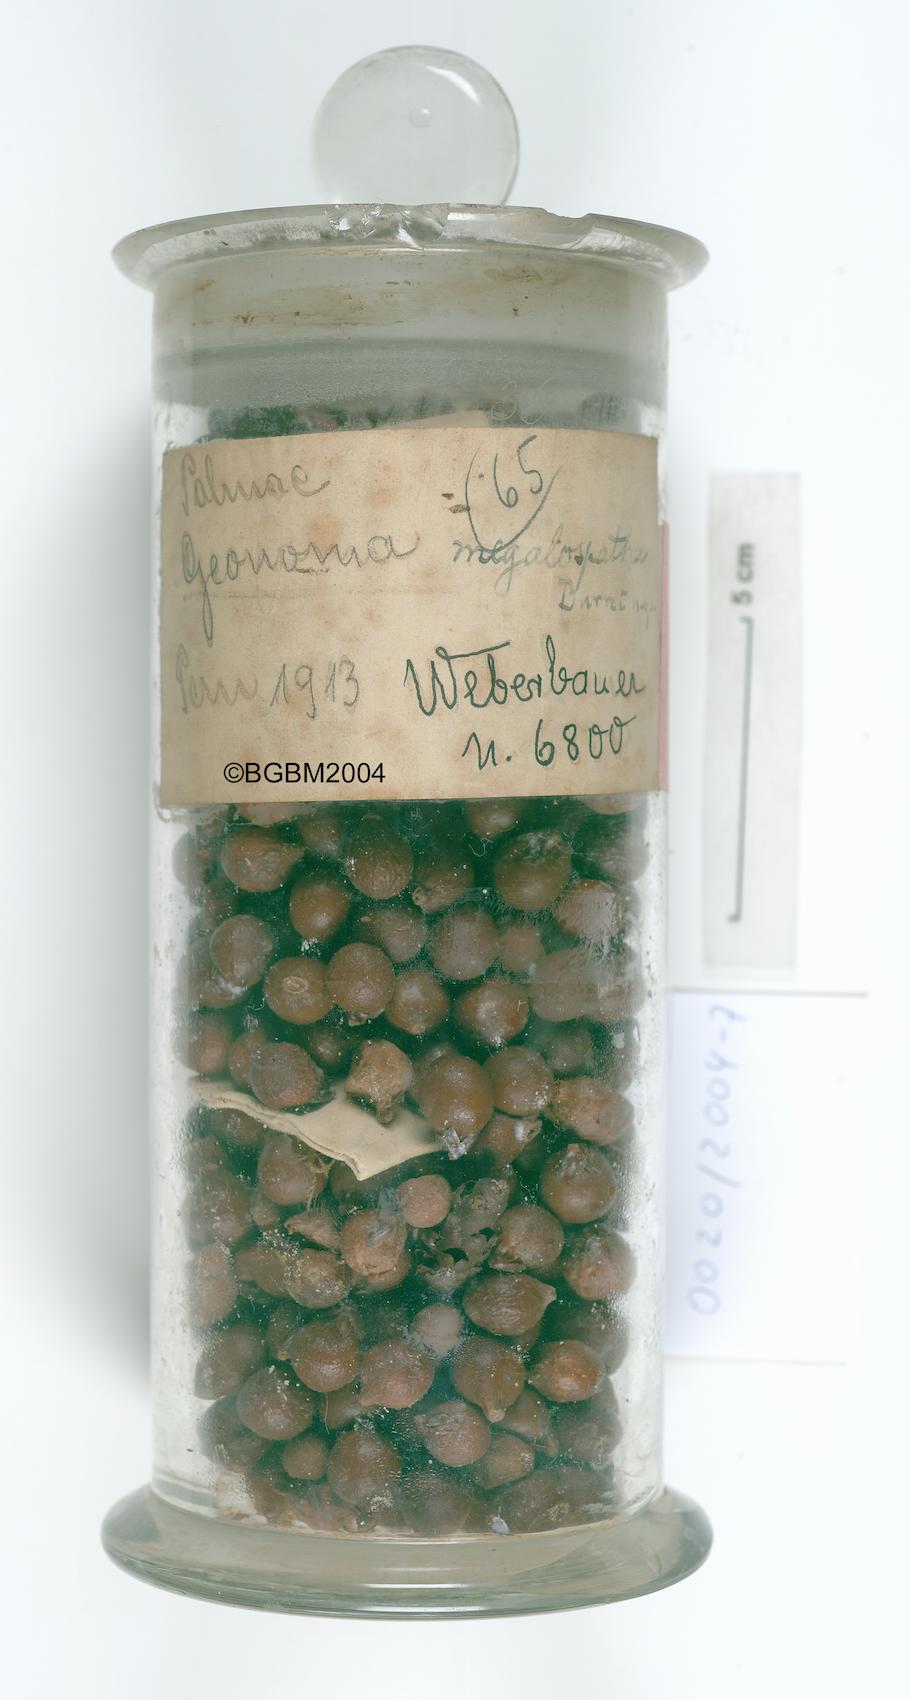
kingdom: Plantae
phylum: Tracheophyta
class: Liliopsida
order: Arecales
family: Arecaceae
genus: Geonoma
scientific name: Geonoma undata
